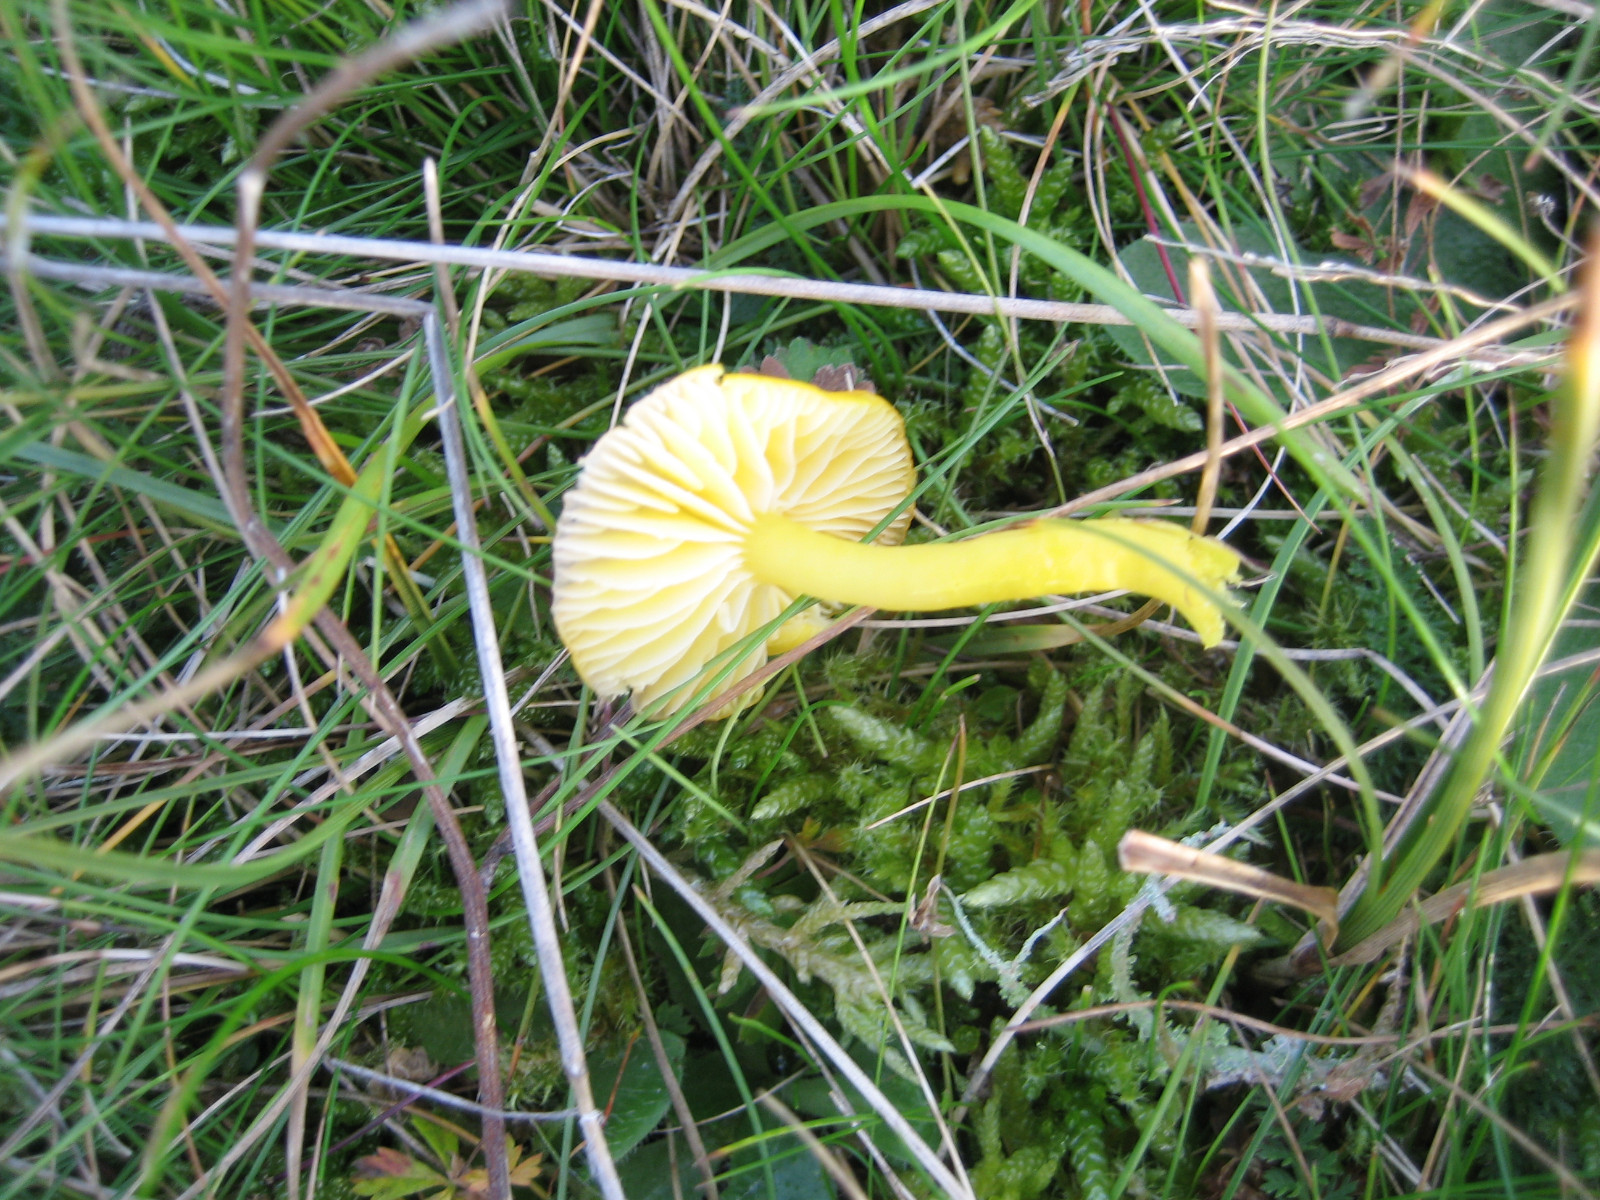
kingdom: Fungi
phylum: Basidiomycota
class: Agaricomycetes
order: Agaricales
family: Hygrophoraceae
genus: Hygrocybe
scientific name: Hygrocybe ceracea
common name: voksgul vokshat
